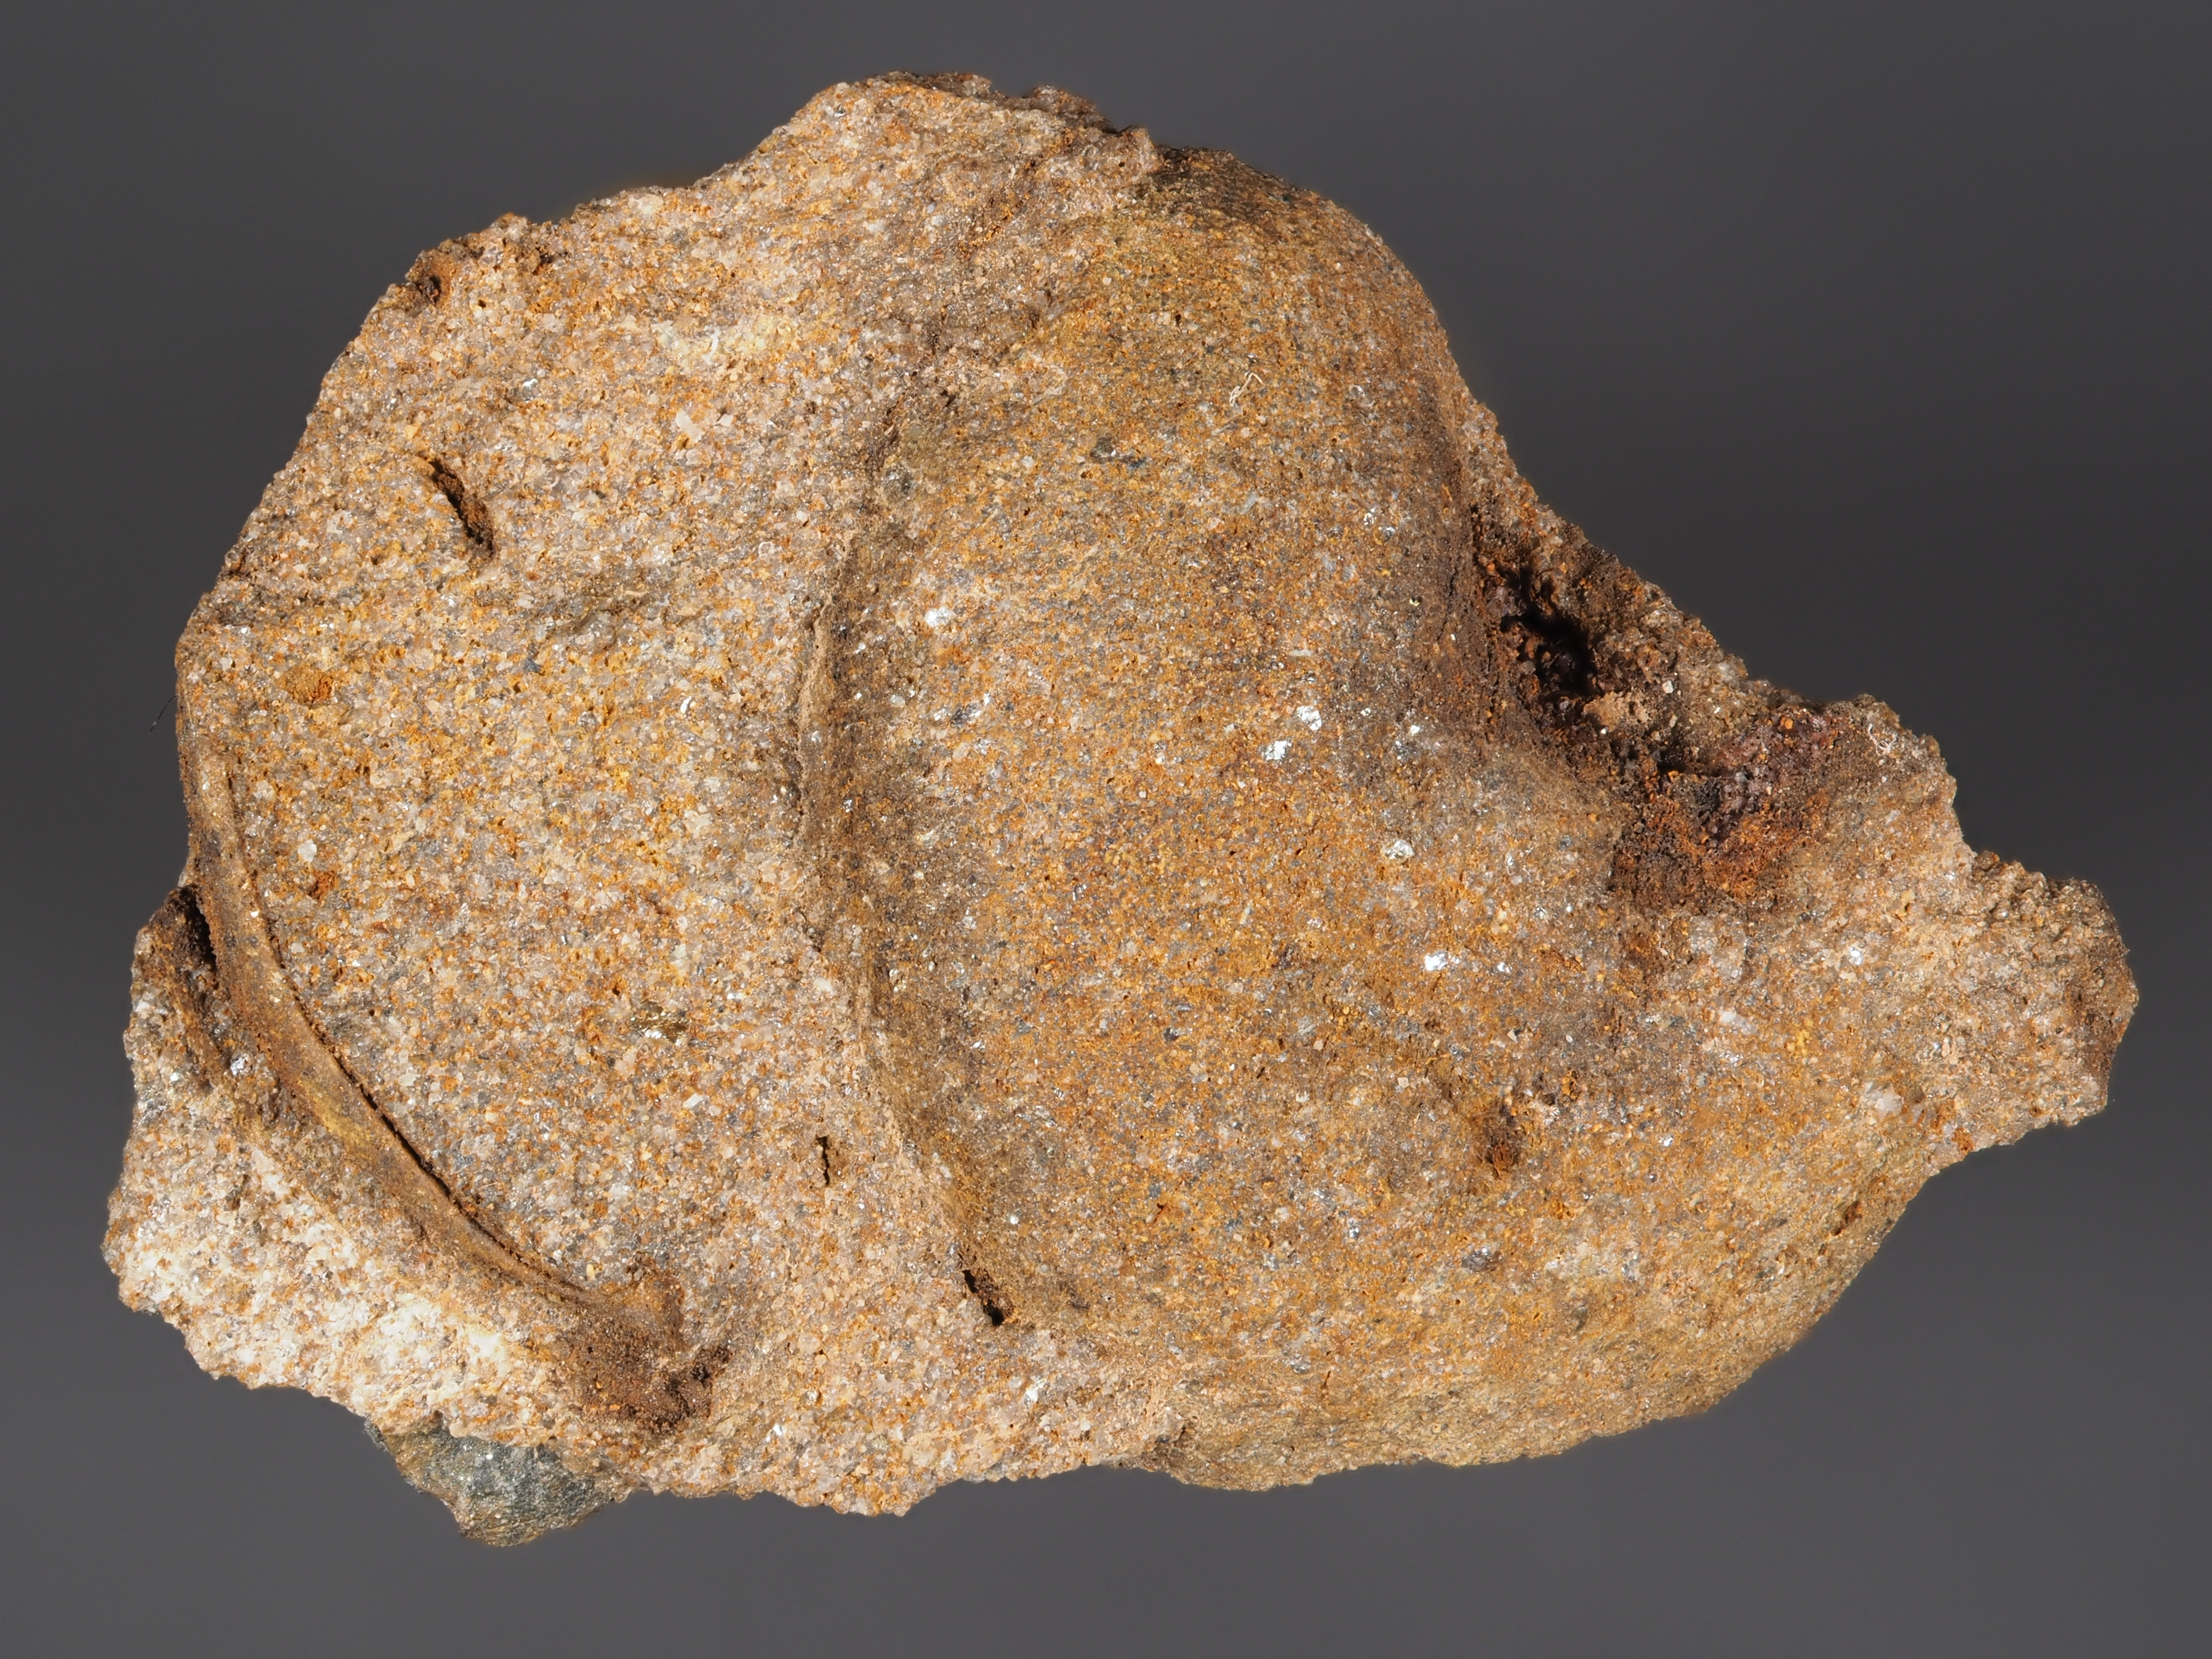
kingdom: Animalia
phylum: Mollusca
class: Bivalvia
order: Ostreida
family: Pterineidae
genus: Leptodesma
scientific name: Leptodesma
